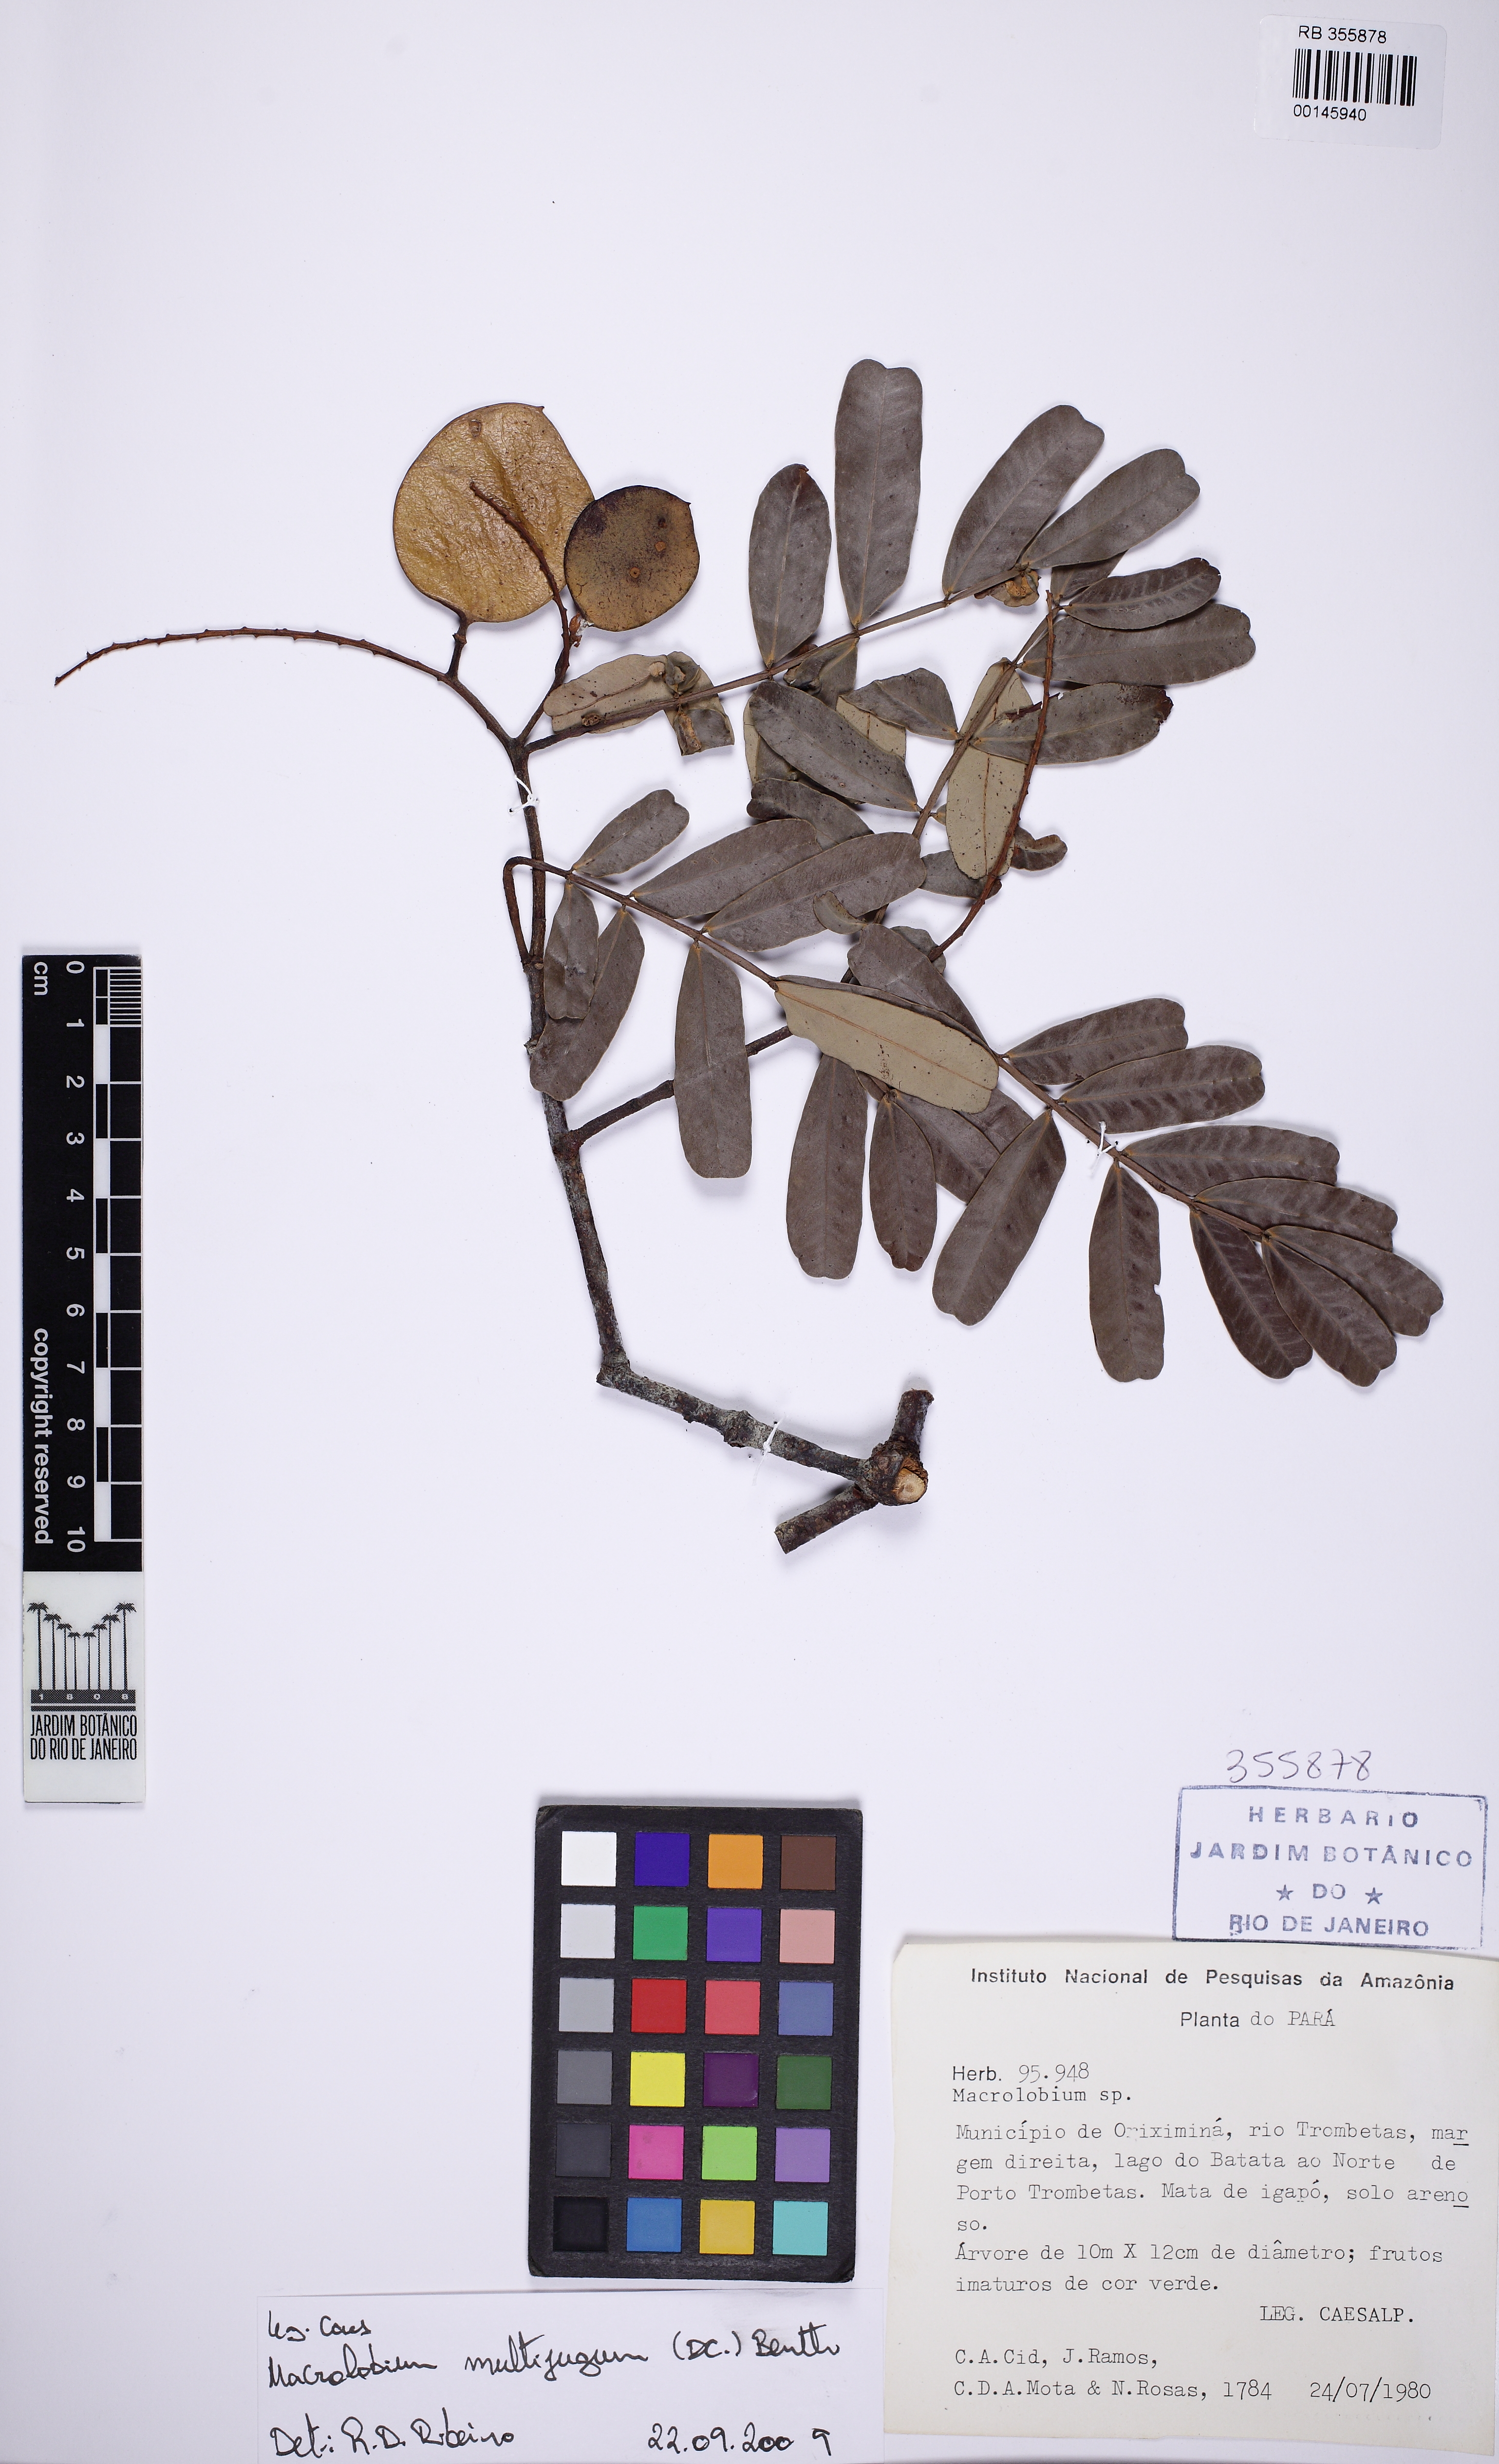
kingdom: Plantae
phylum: Tracheophyta
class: Magnoliopsida
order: Fabales
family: Fabaceae
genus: Macrolobium
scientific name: Macrolobium
